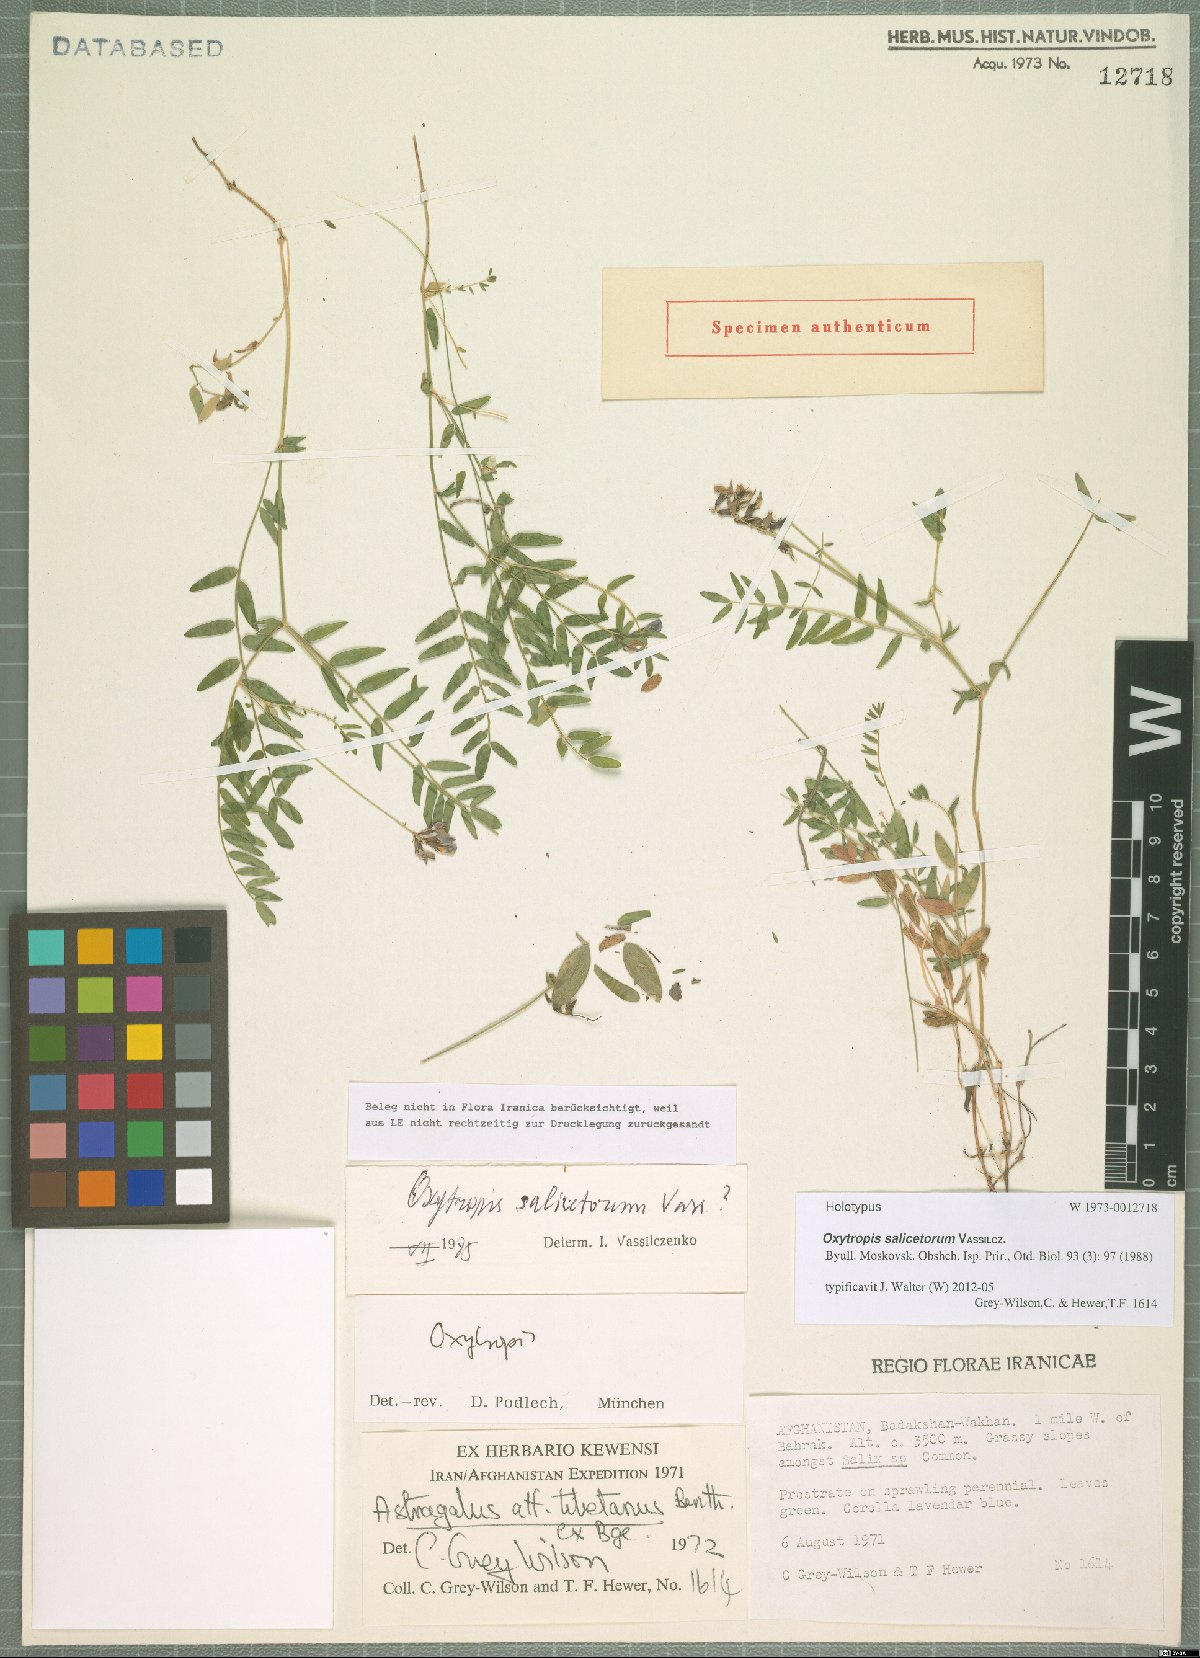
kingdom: Plantae
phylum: Tracheophyta
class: Magnoliopsida
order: Fabales
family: Fabaceae
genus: Oxytropis
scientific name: Oxytropis salicetorum
